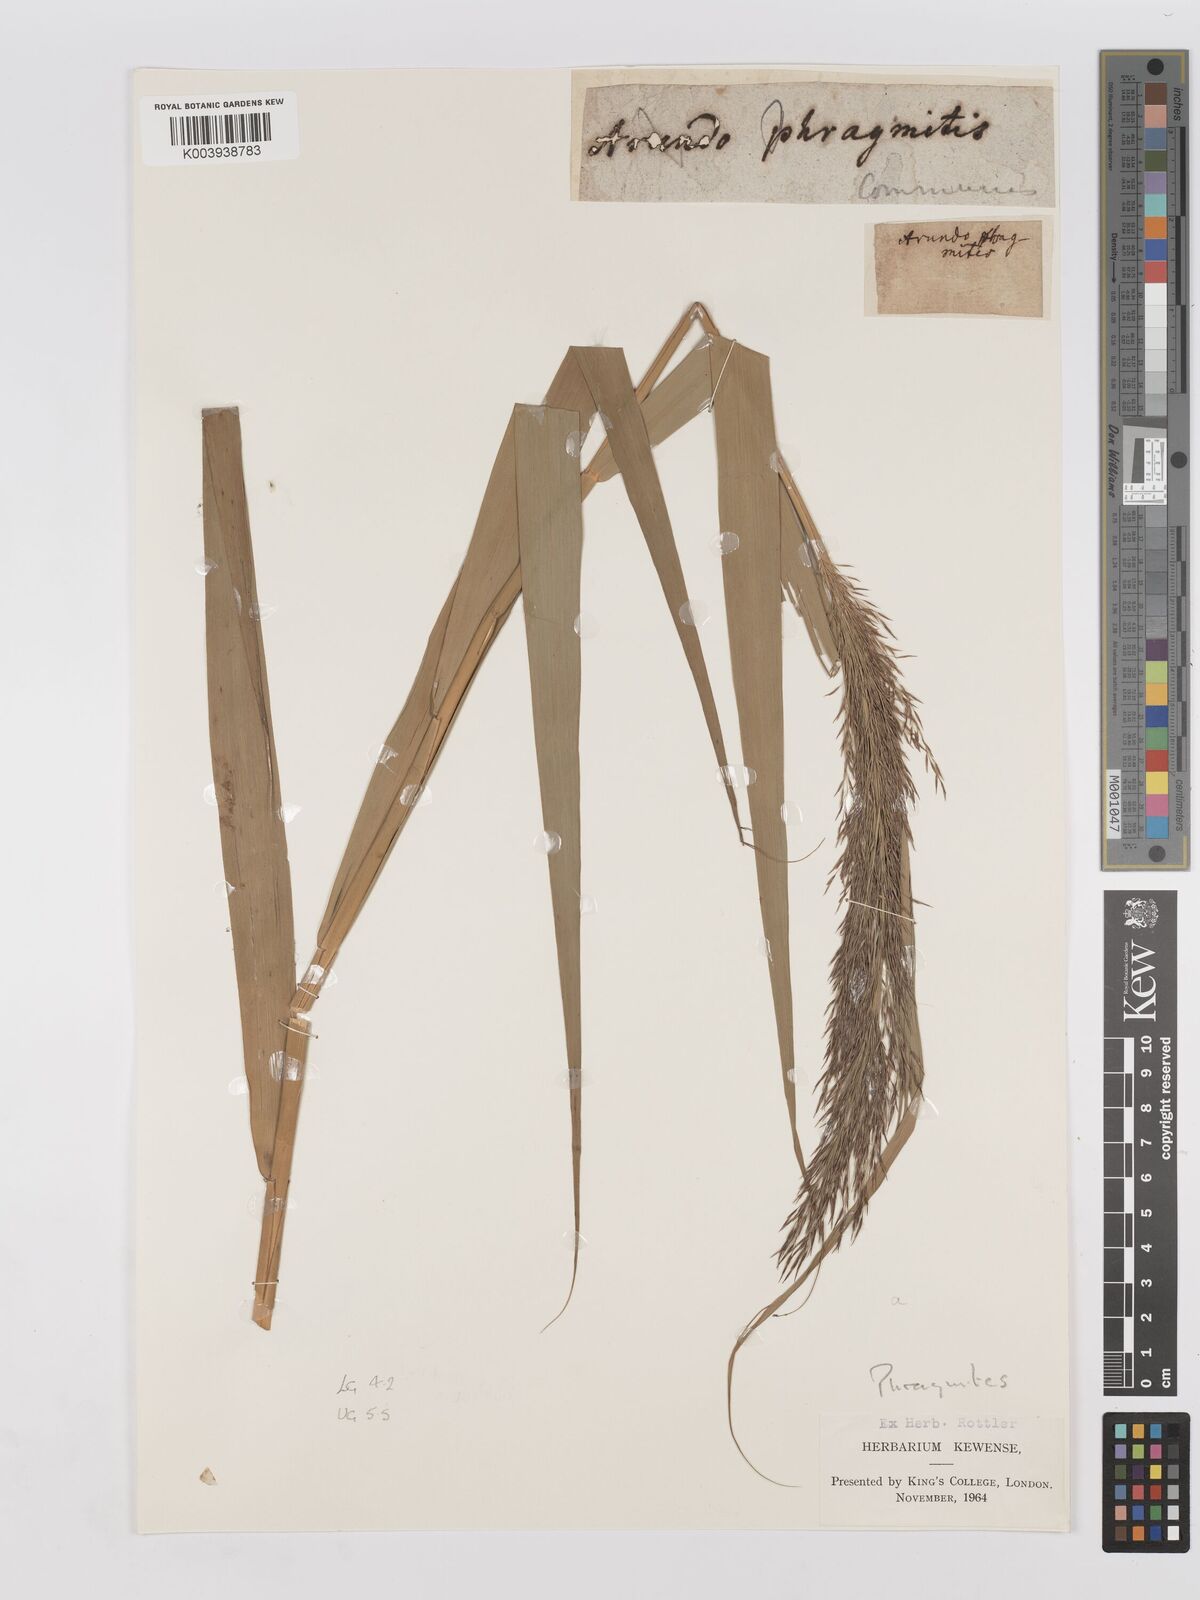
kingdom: Plantae
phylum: Tracheophyta
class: Liliopsida
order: Poales
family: Poaceae
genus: Phragmites
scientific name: Phragmites australis
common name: Common reed
